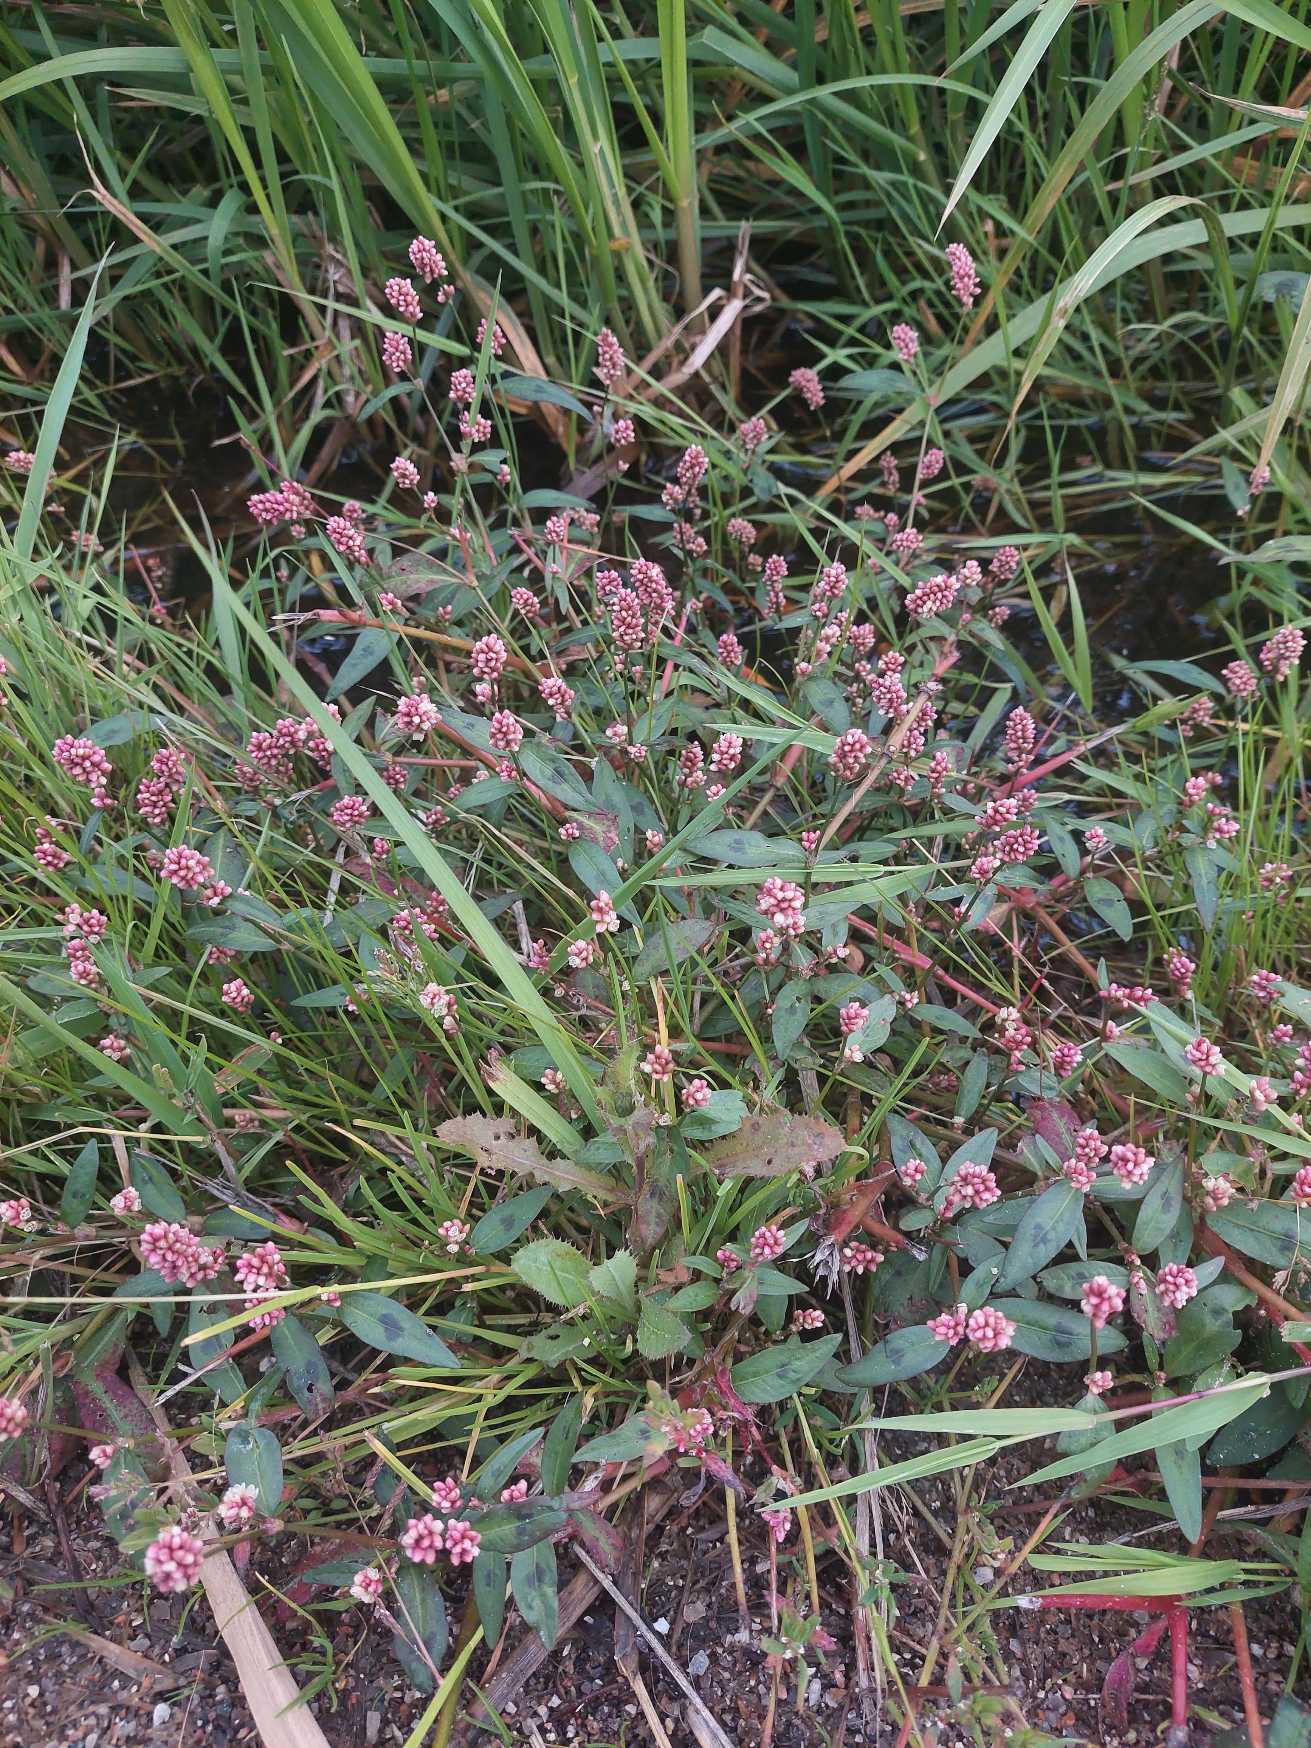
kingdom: Plantae
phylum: Tracheophyta
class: Magnoliopsida
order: Caryophyllales
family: Polygonaceae
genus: Persicaria
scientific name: Persicaria maculosa
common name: Fersken-pileurt
